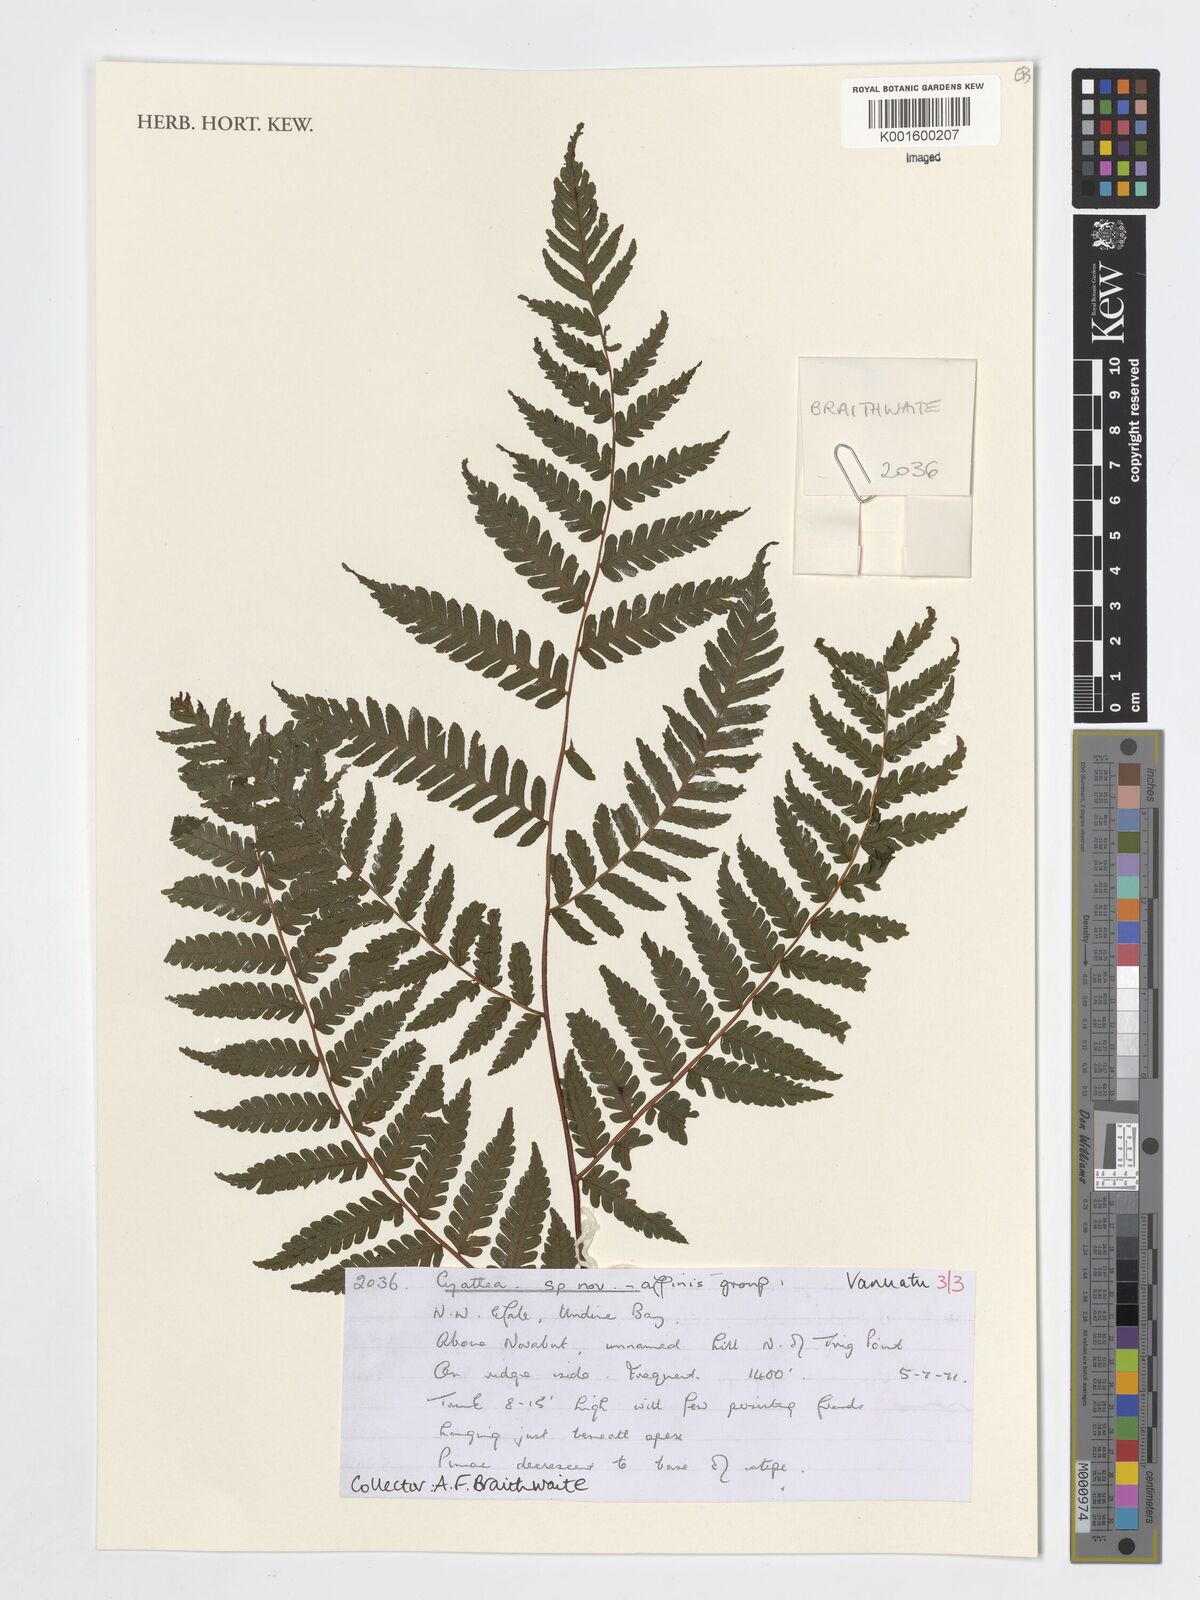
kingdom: Plantae
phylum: Tracheophyta
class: Polypodiopsida
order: Cyatheales
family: Cyatheaceae
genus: Cyathea
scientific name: Cyathea
